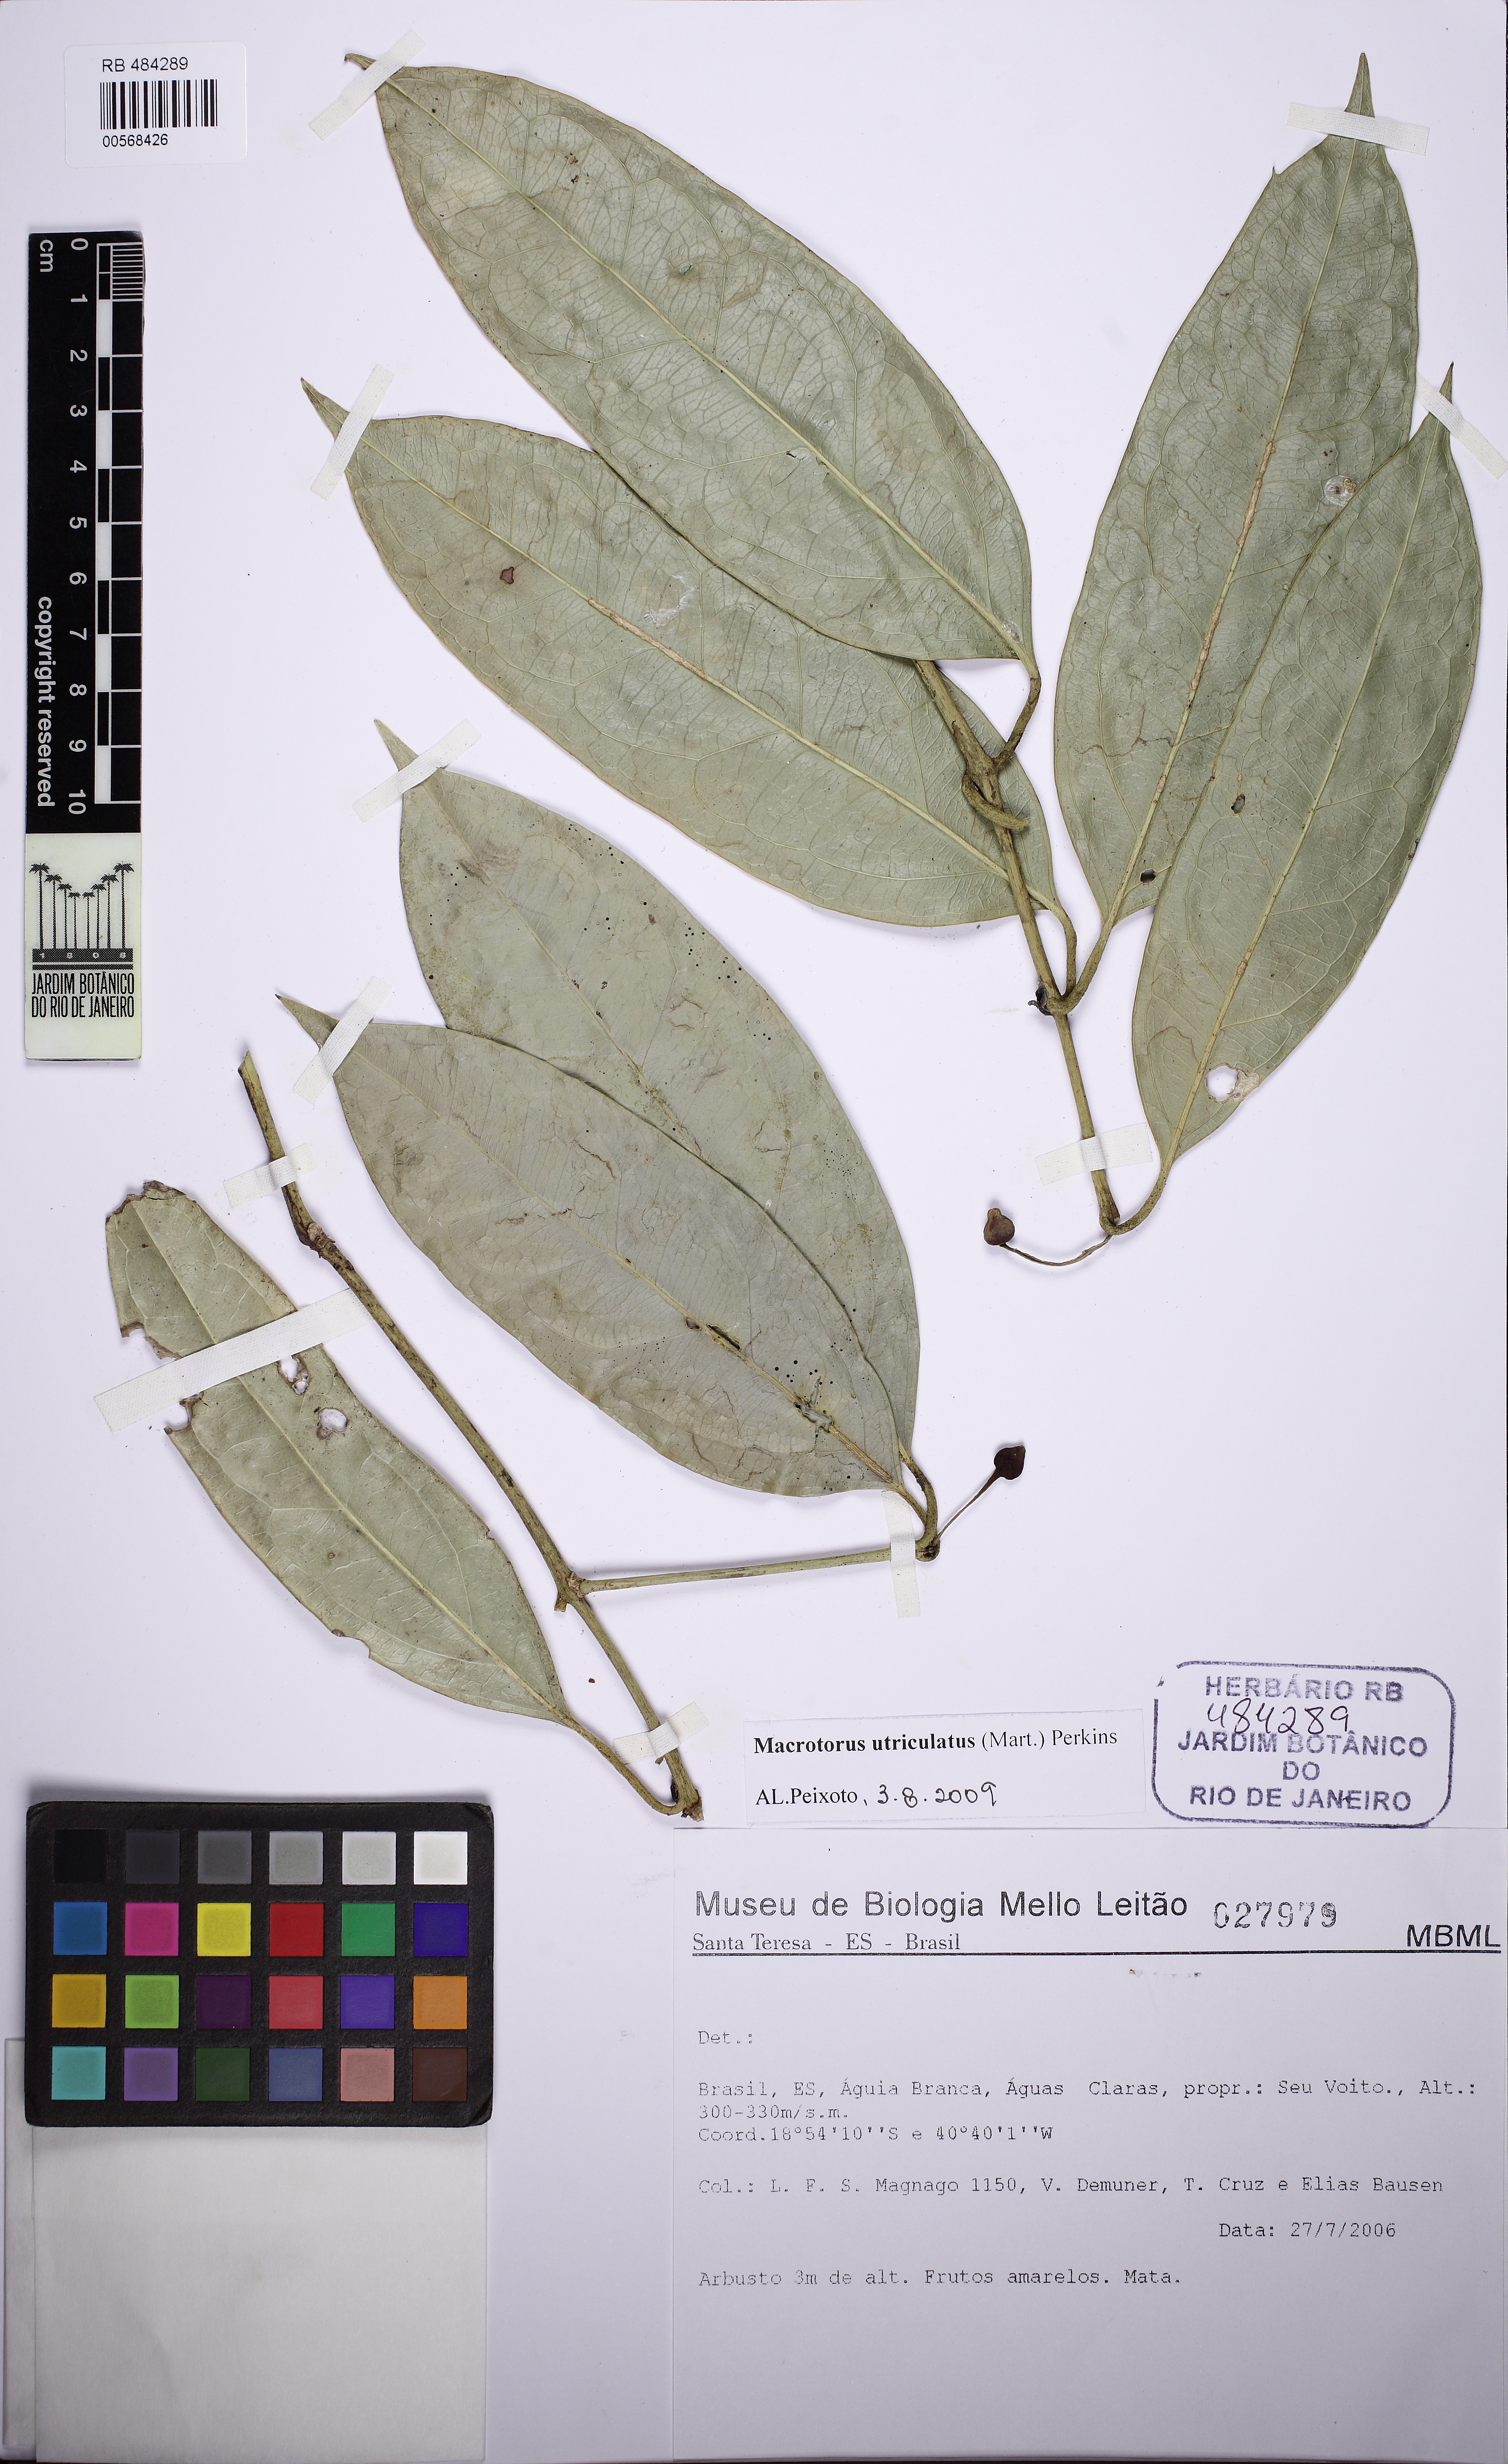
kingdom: Plantae
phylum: Tracheophyta
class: Magnoliopsida
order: Laurales
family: Monimiaceae
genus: Macrotorus
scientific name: Macrotorus utriculatus
